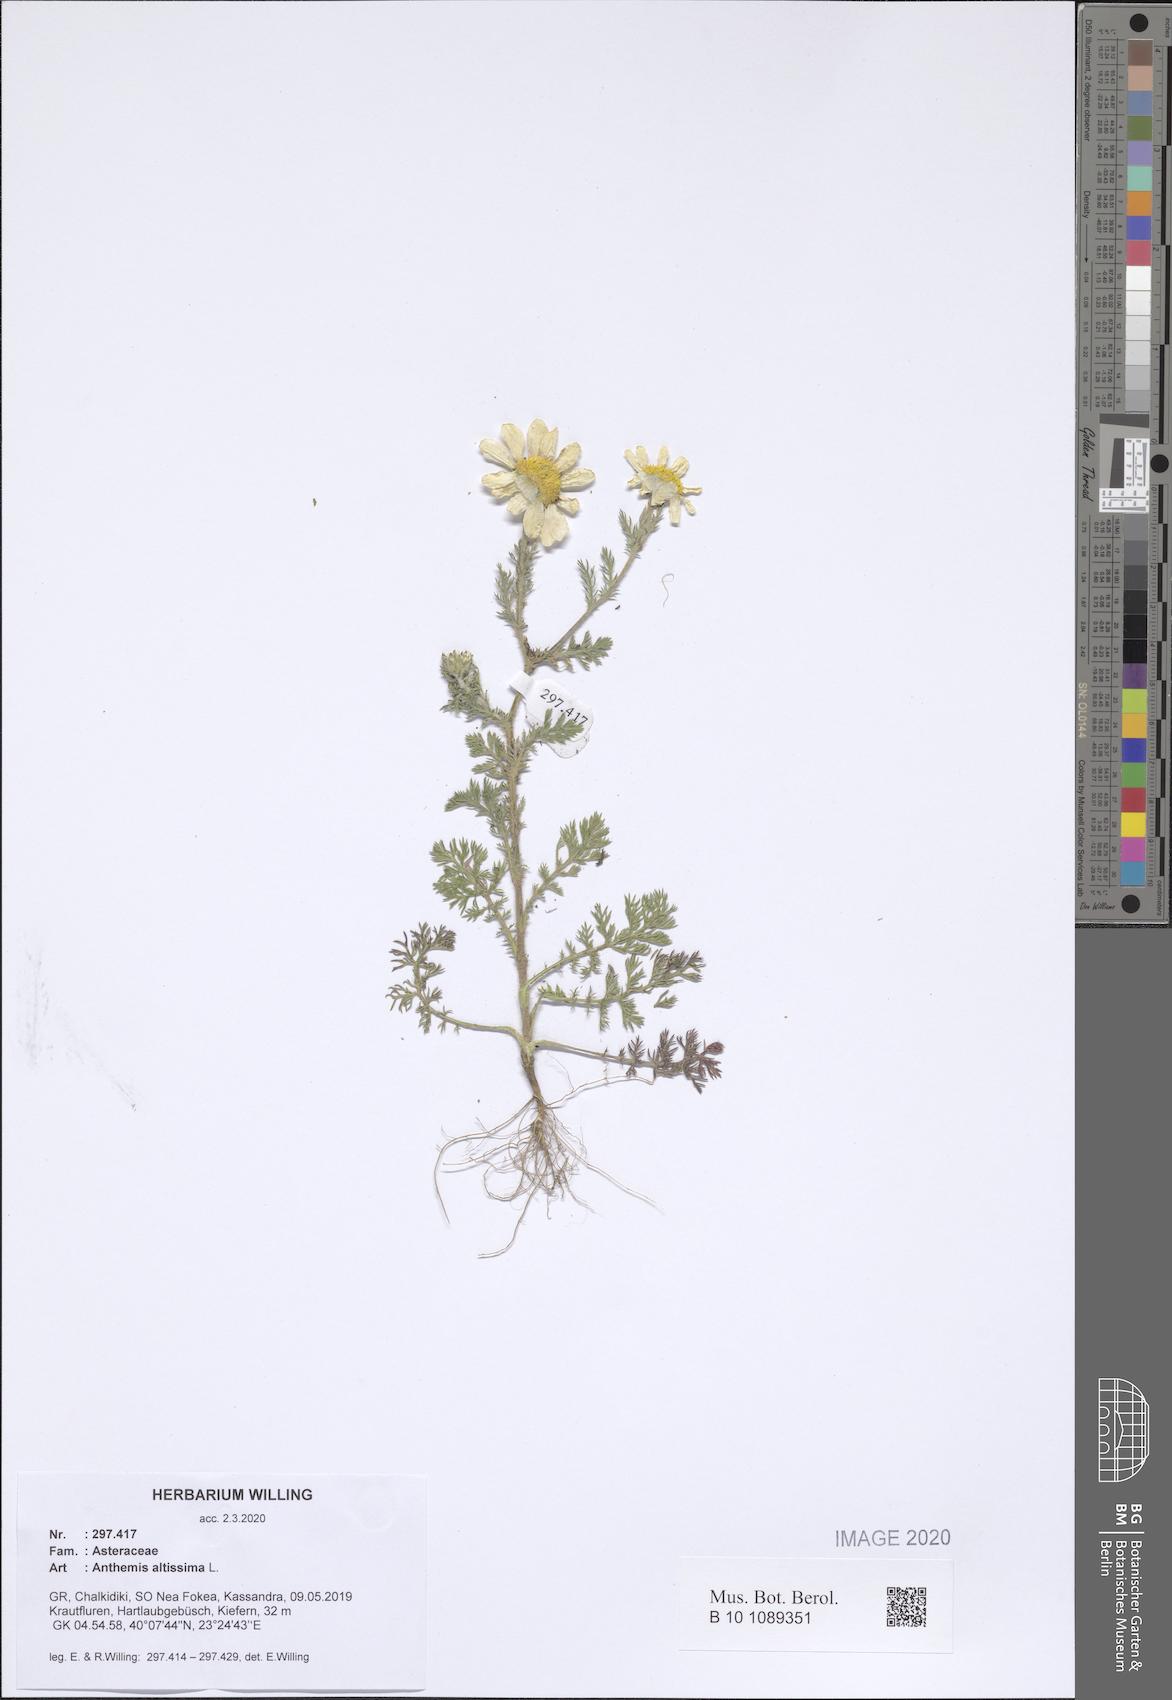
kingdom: Plantae
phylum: Tracheophyta
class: Magnoliopsida
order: Asterales
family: Asteraceae
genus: Cota
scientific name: Cota altissima
